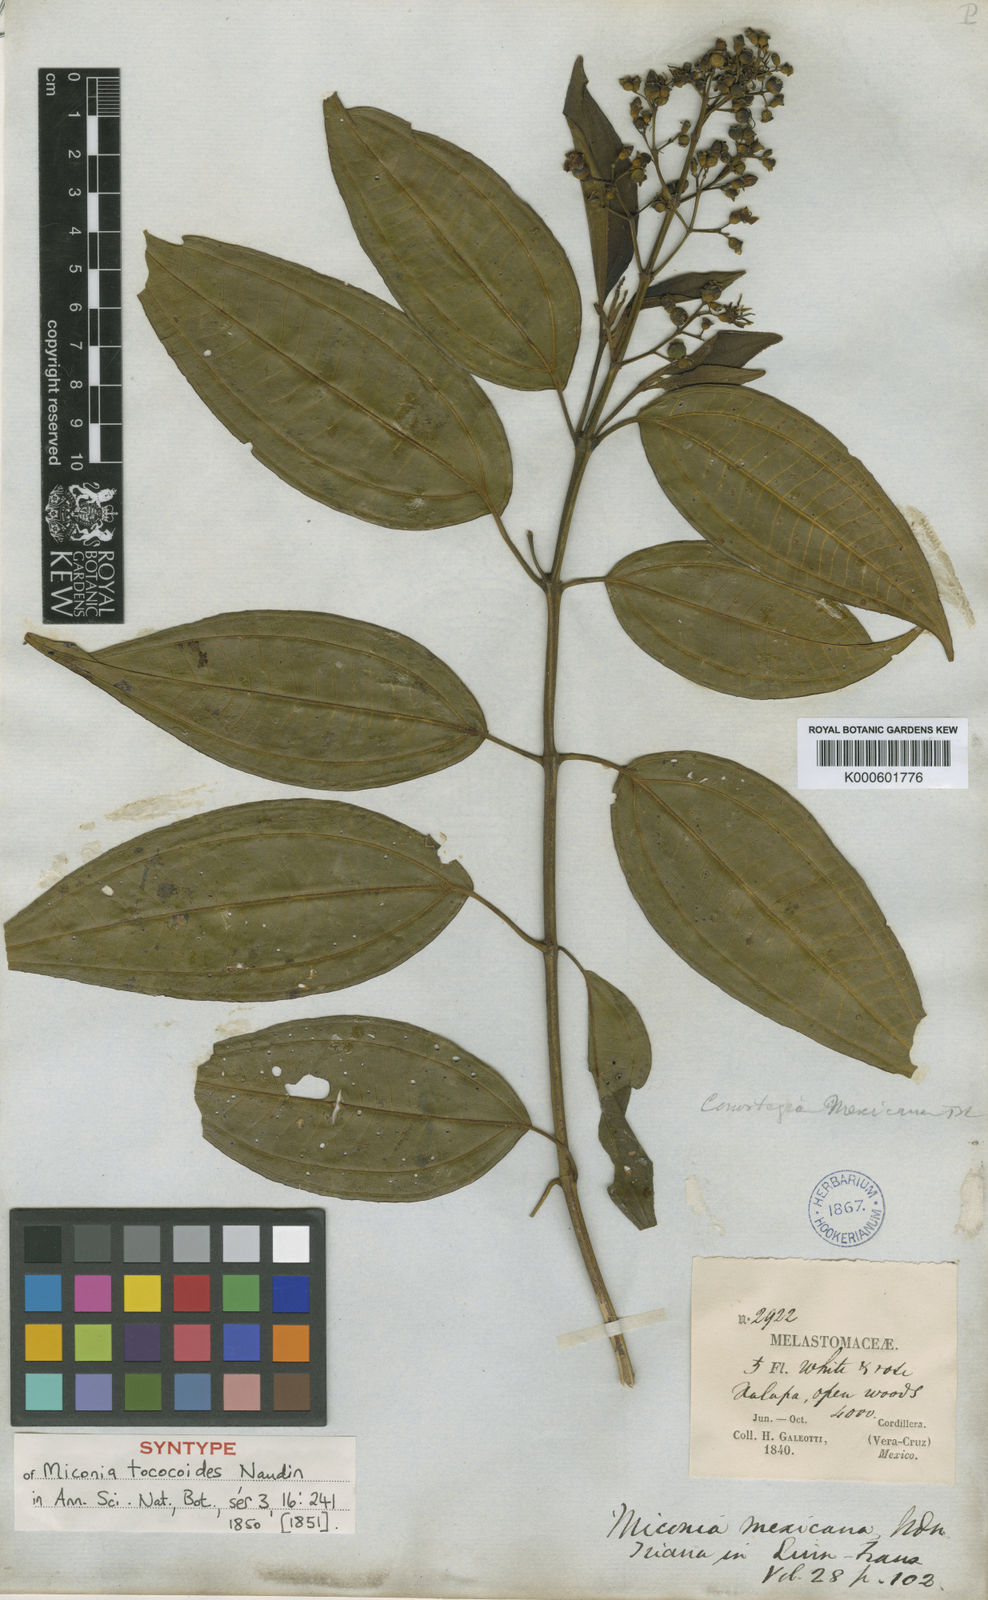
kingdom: Plantae
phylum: Tracheophyta
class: Magnoliopsida
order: Myrtales
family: Melastomataceae
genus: Miconia
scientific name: Miconia mexicana
